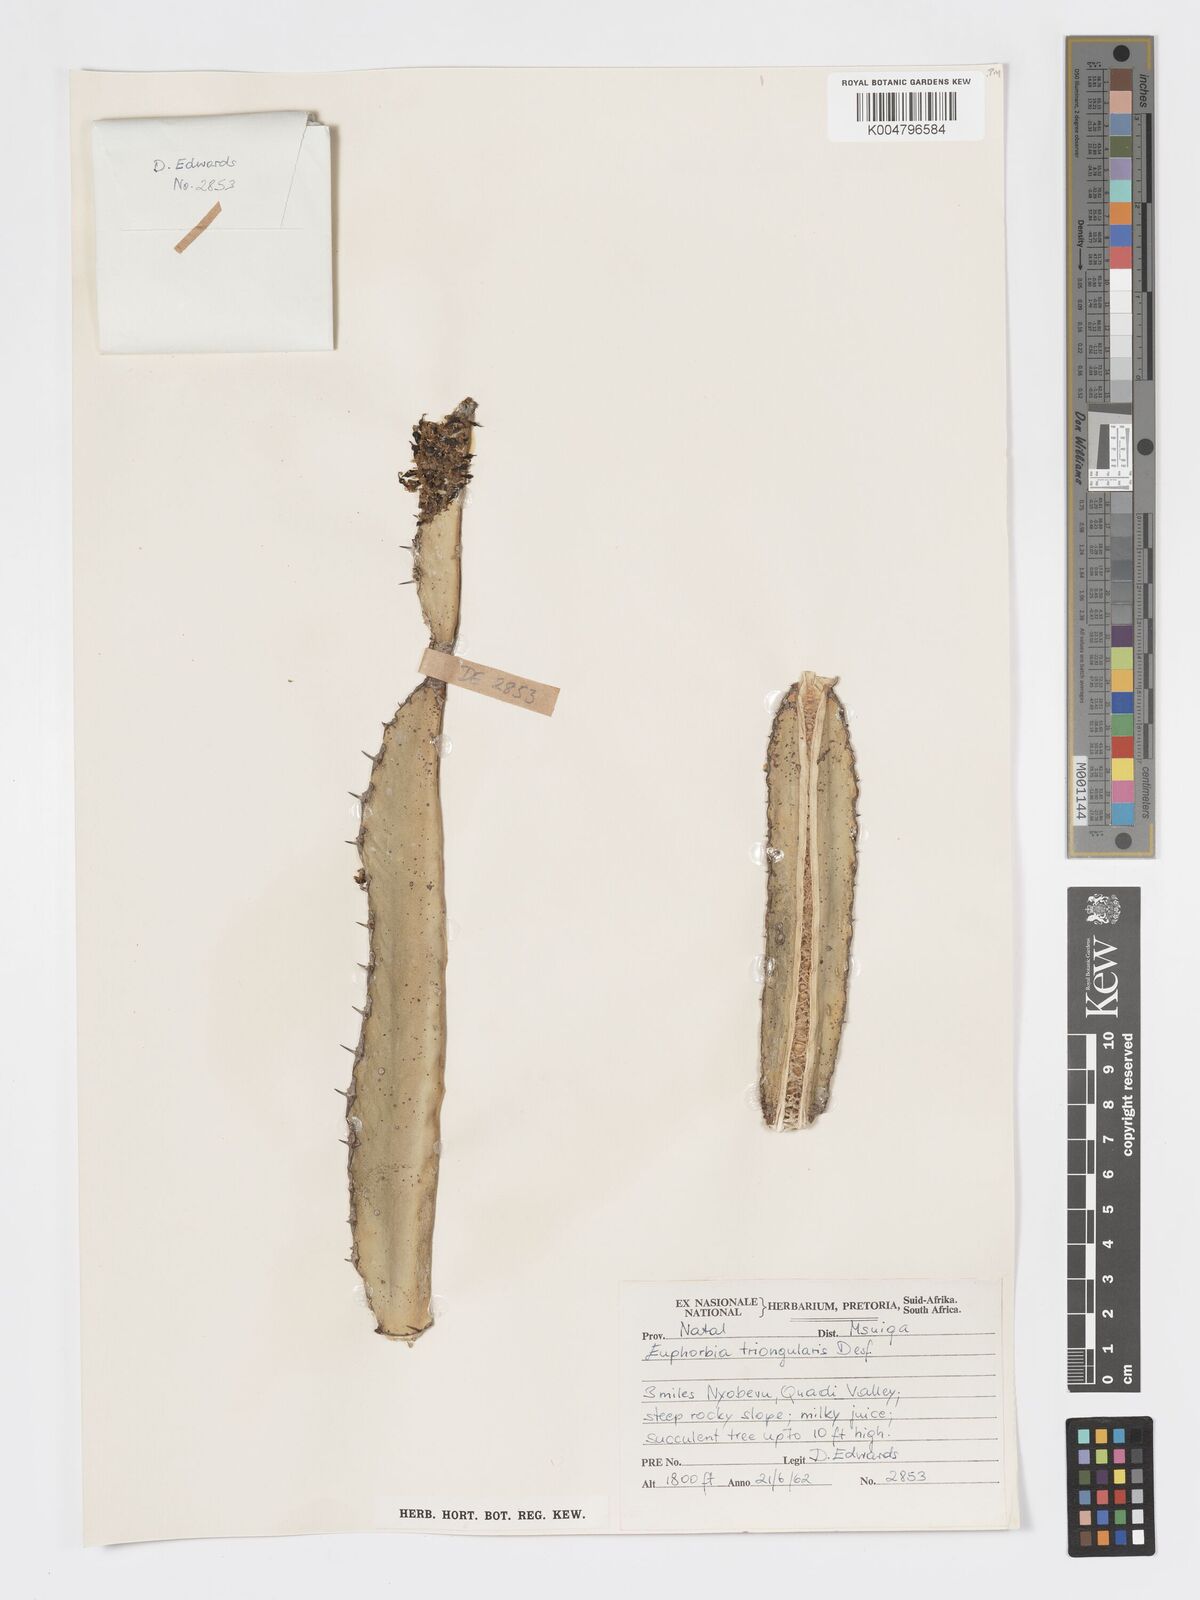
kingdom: Plantae
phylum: Tracheophyta
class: Magnoliopsida
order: Malpighiales
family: Euphorbiaceae
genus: Euphorbia
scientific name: Euphorbia triangularis
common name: Chandelier tree
